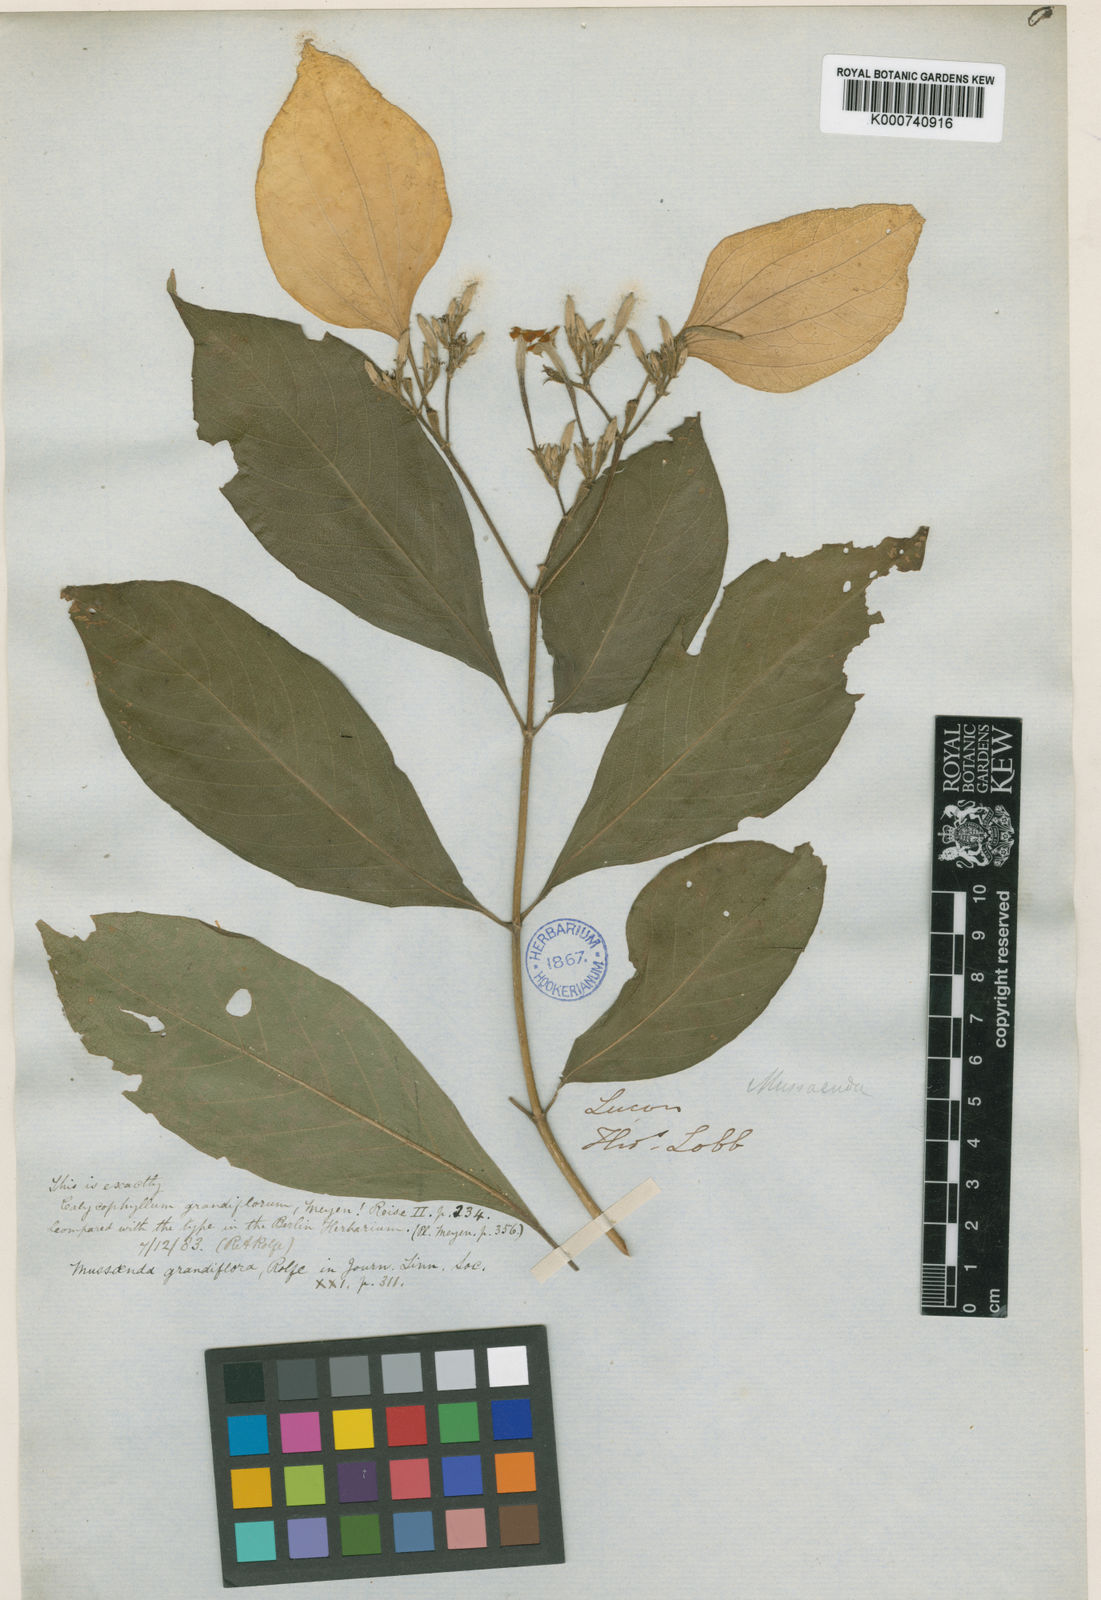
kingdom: Plantae
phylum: Tracheophyta
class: Magnoliopsida
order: Gentianales
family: Rubiaceae
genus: Mussaenda
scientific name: Mussaenda grandiflora
